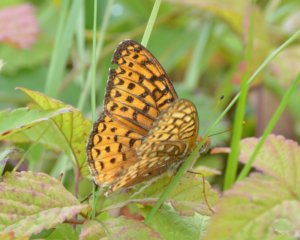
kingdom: Animalia
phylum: Arthropoda
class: Insecta
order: Lepidoptera
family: Nymphalidae
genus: Speyeria
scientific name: Speyeria atlantis
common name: Atlantis Fritillary
